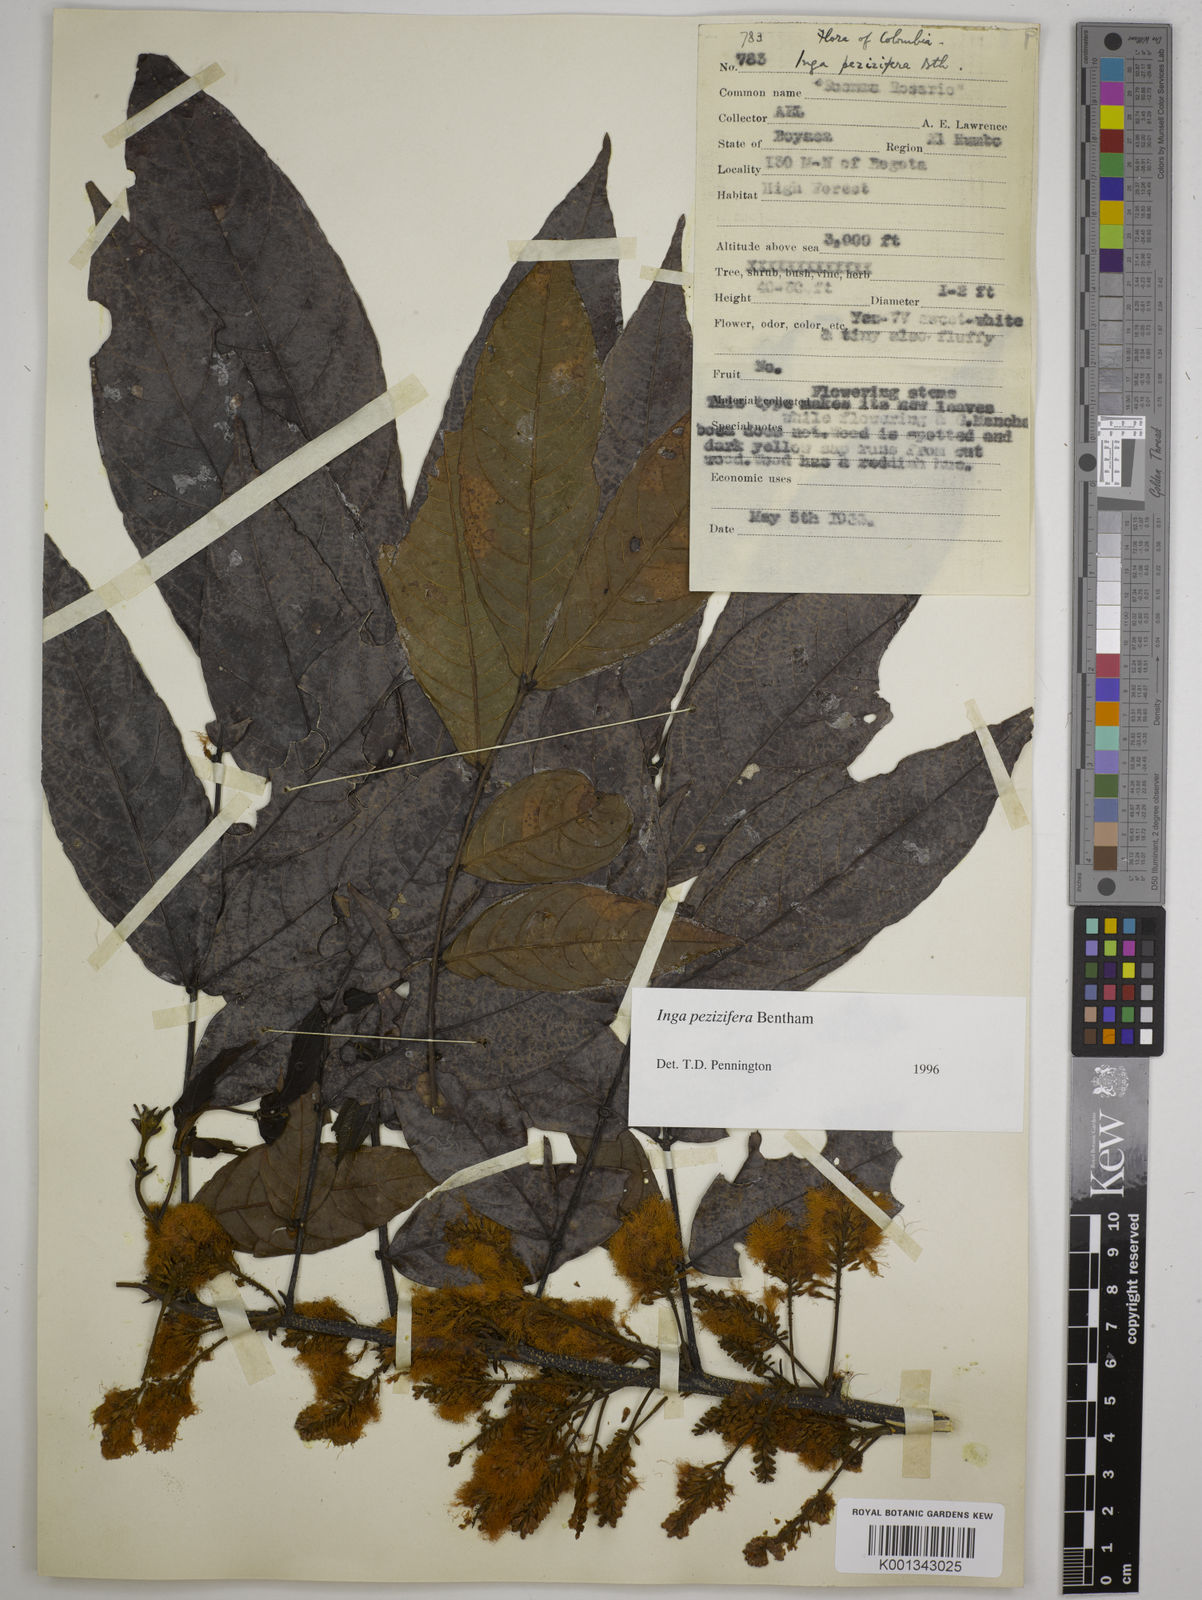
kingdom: Plantae
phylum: Tracheophyta
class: Magnoliopsida
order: Fabales
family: Fabaceae
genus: Inga
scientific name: Inga pezizifera
